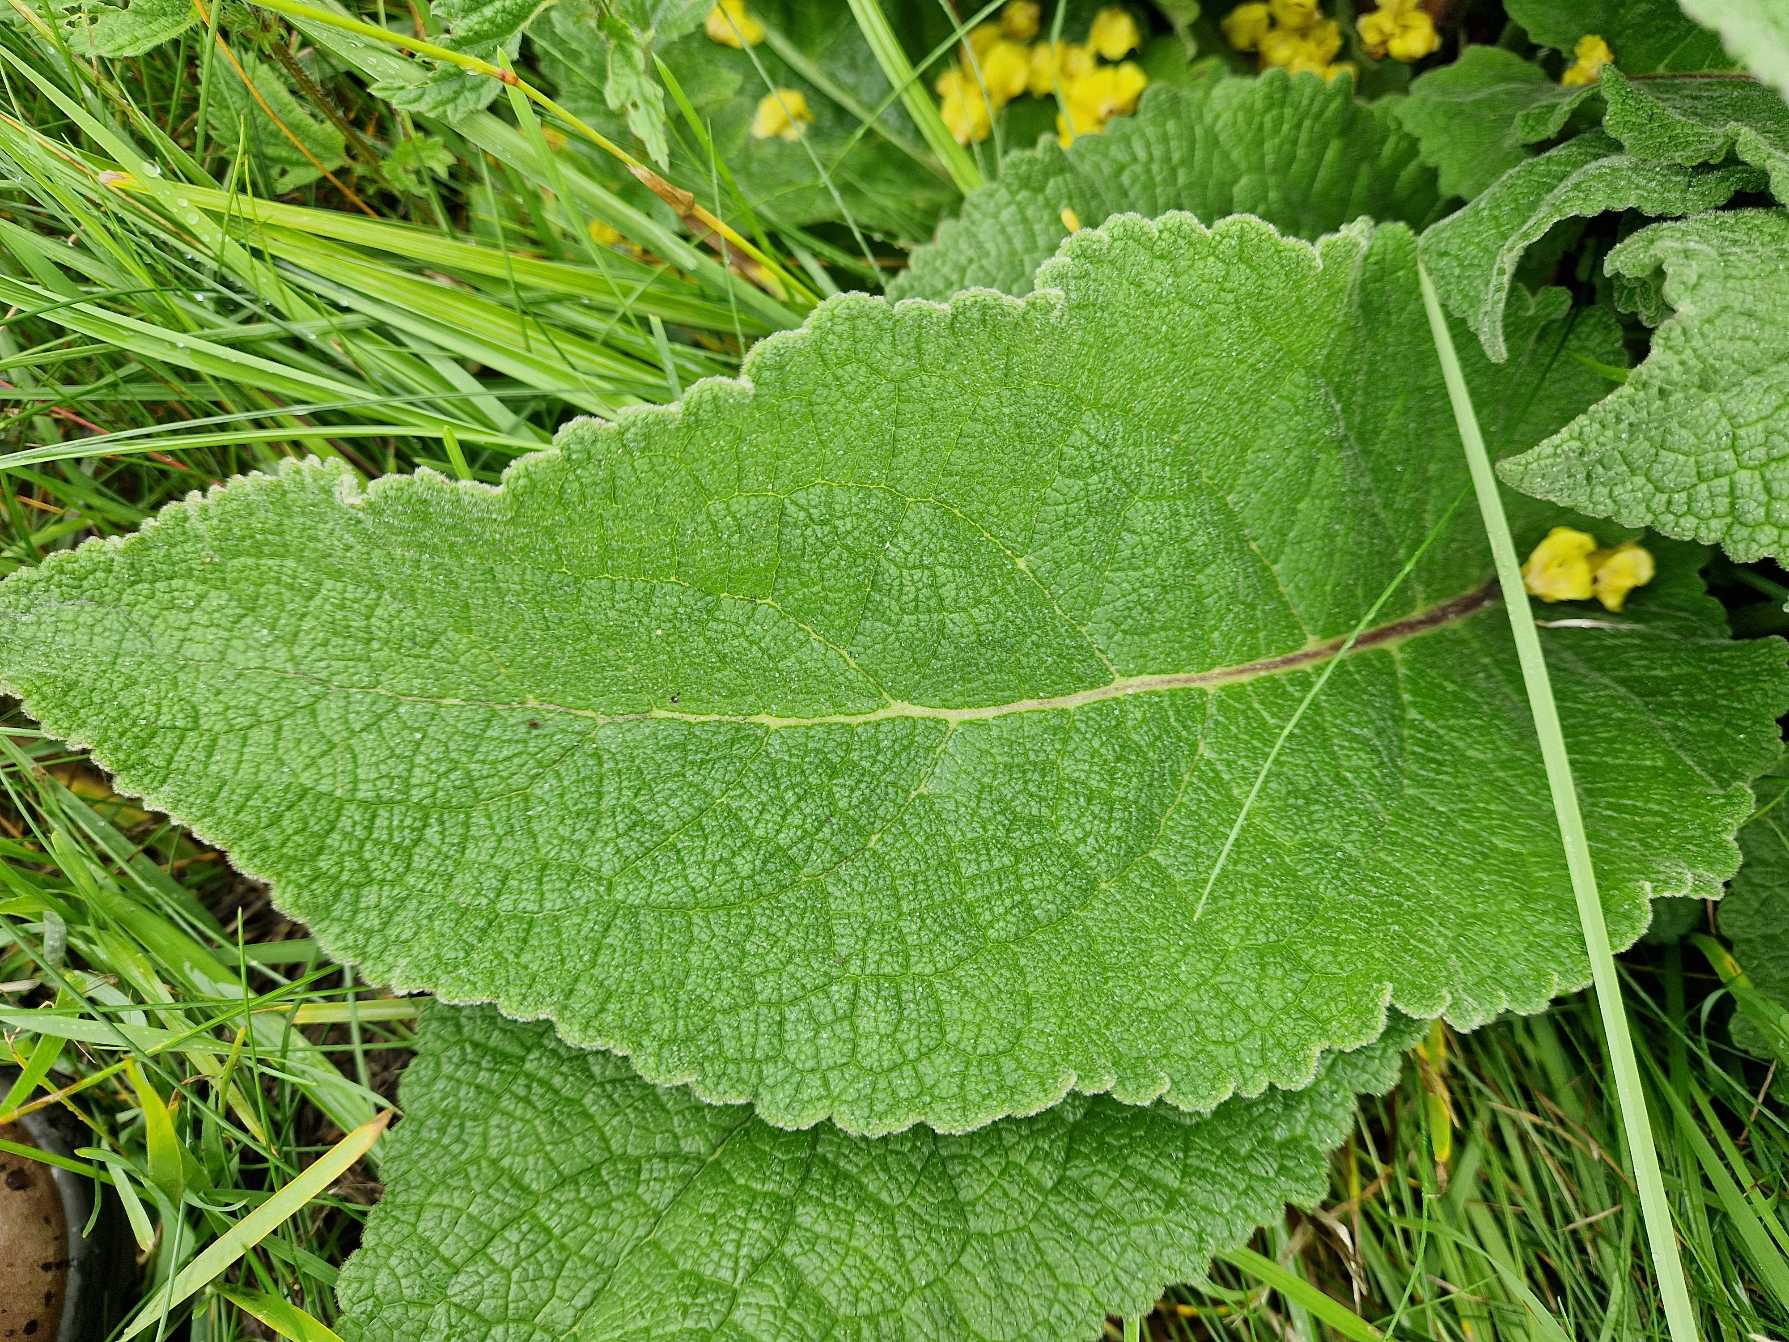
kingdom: Plantae
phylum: Tracheophyta
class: Magnoliopsida
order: Lamiales
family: Scrophulariaceae
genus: Verbascum
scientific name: Verbascum nigrum
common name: Mørk kongelys
